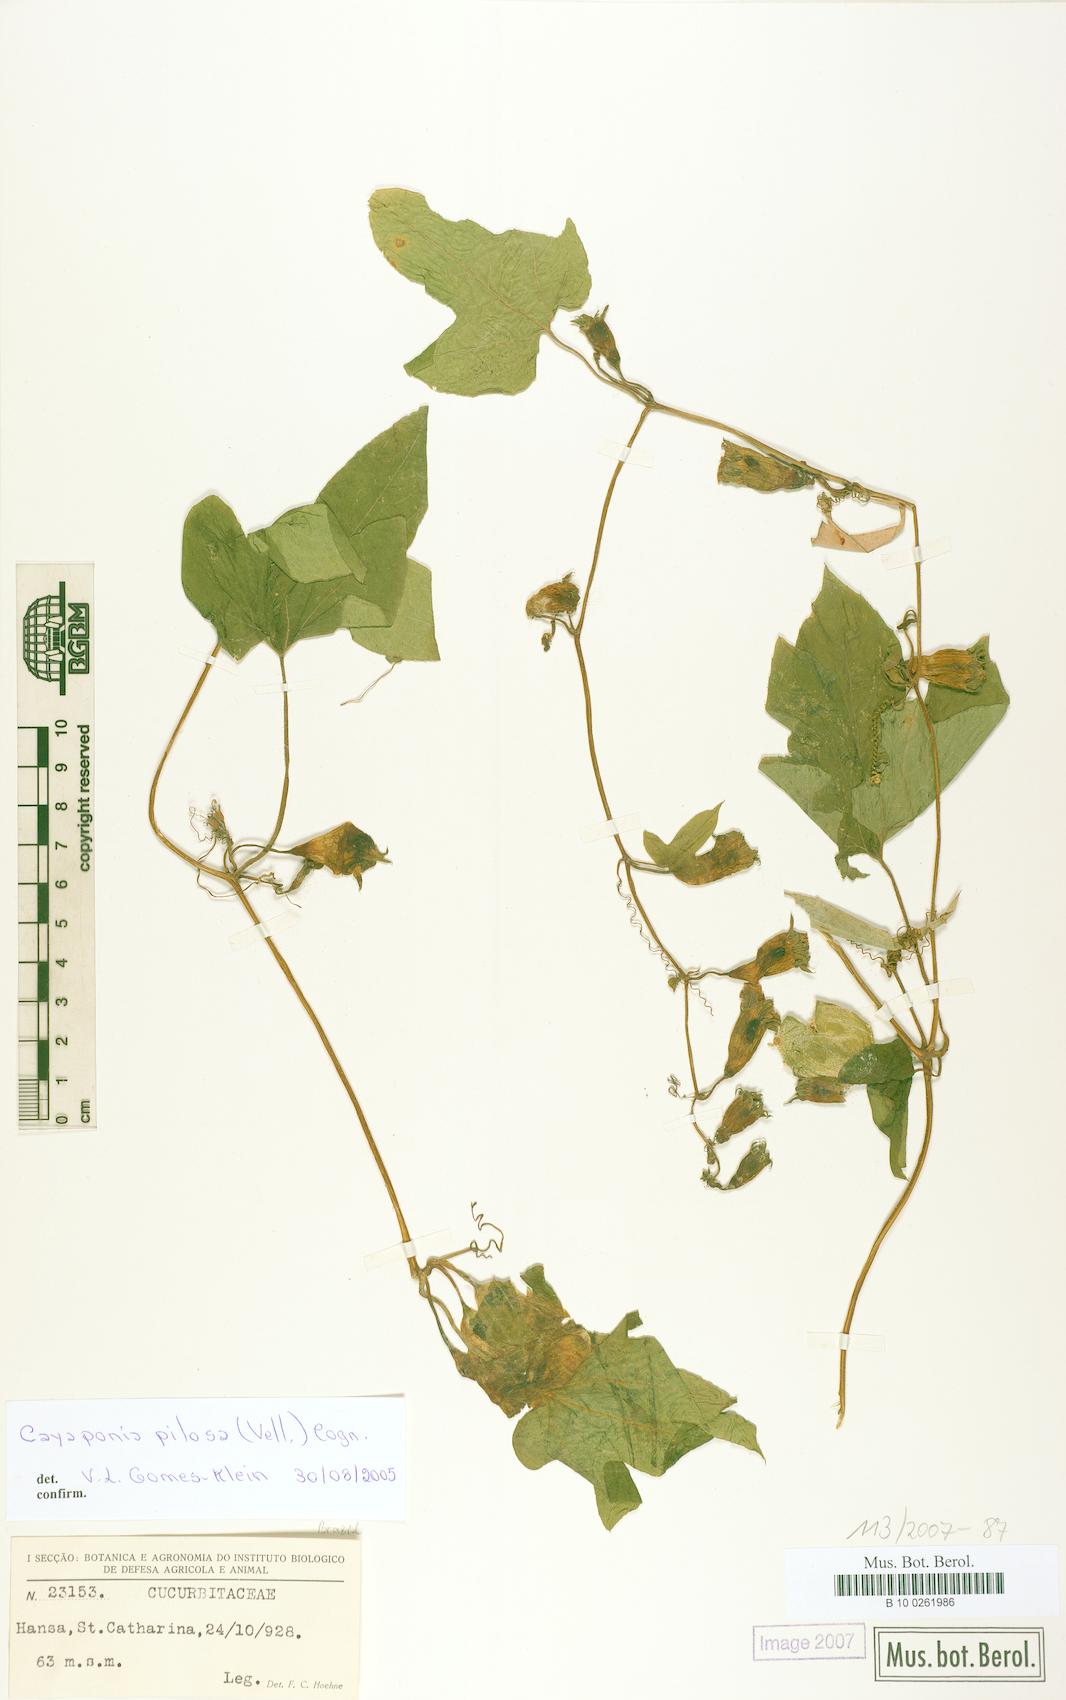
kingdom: Plantae
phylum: Tracheophyta
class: Magnoliopsida
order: Cucurbitales
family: Cucurbitaceae
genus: Cayaponia
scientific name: Cayaponia pilosa
